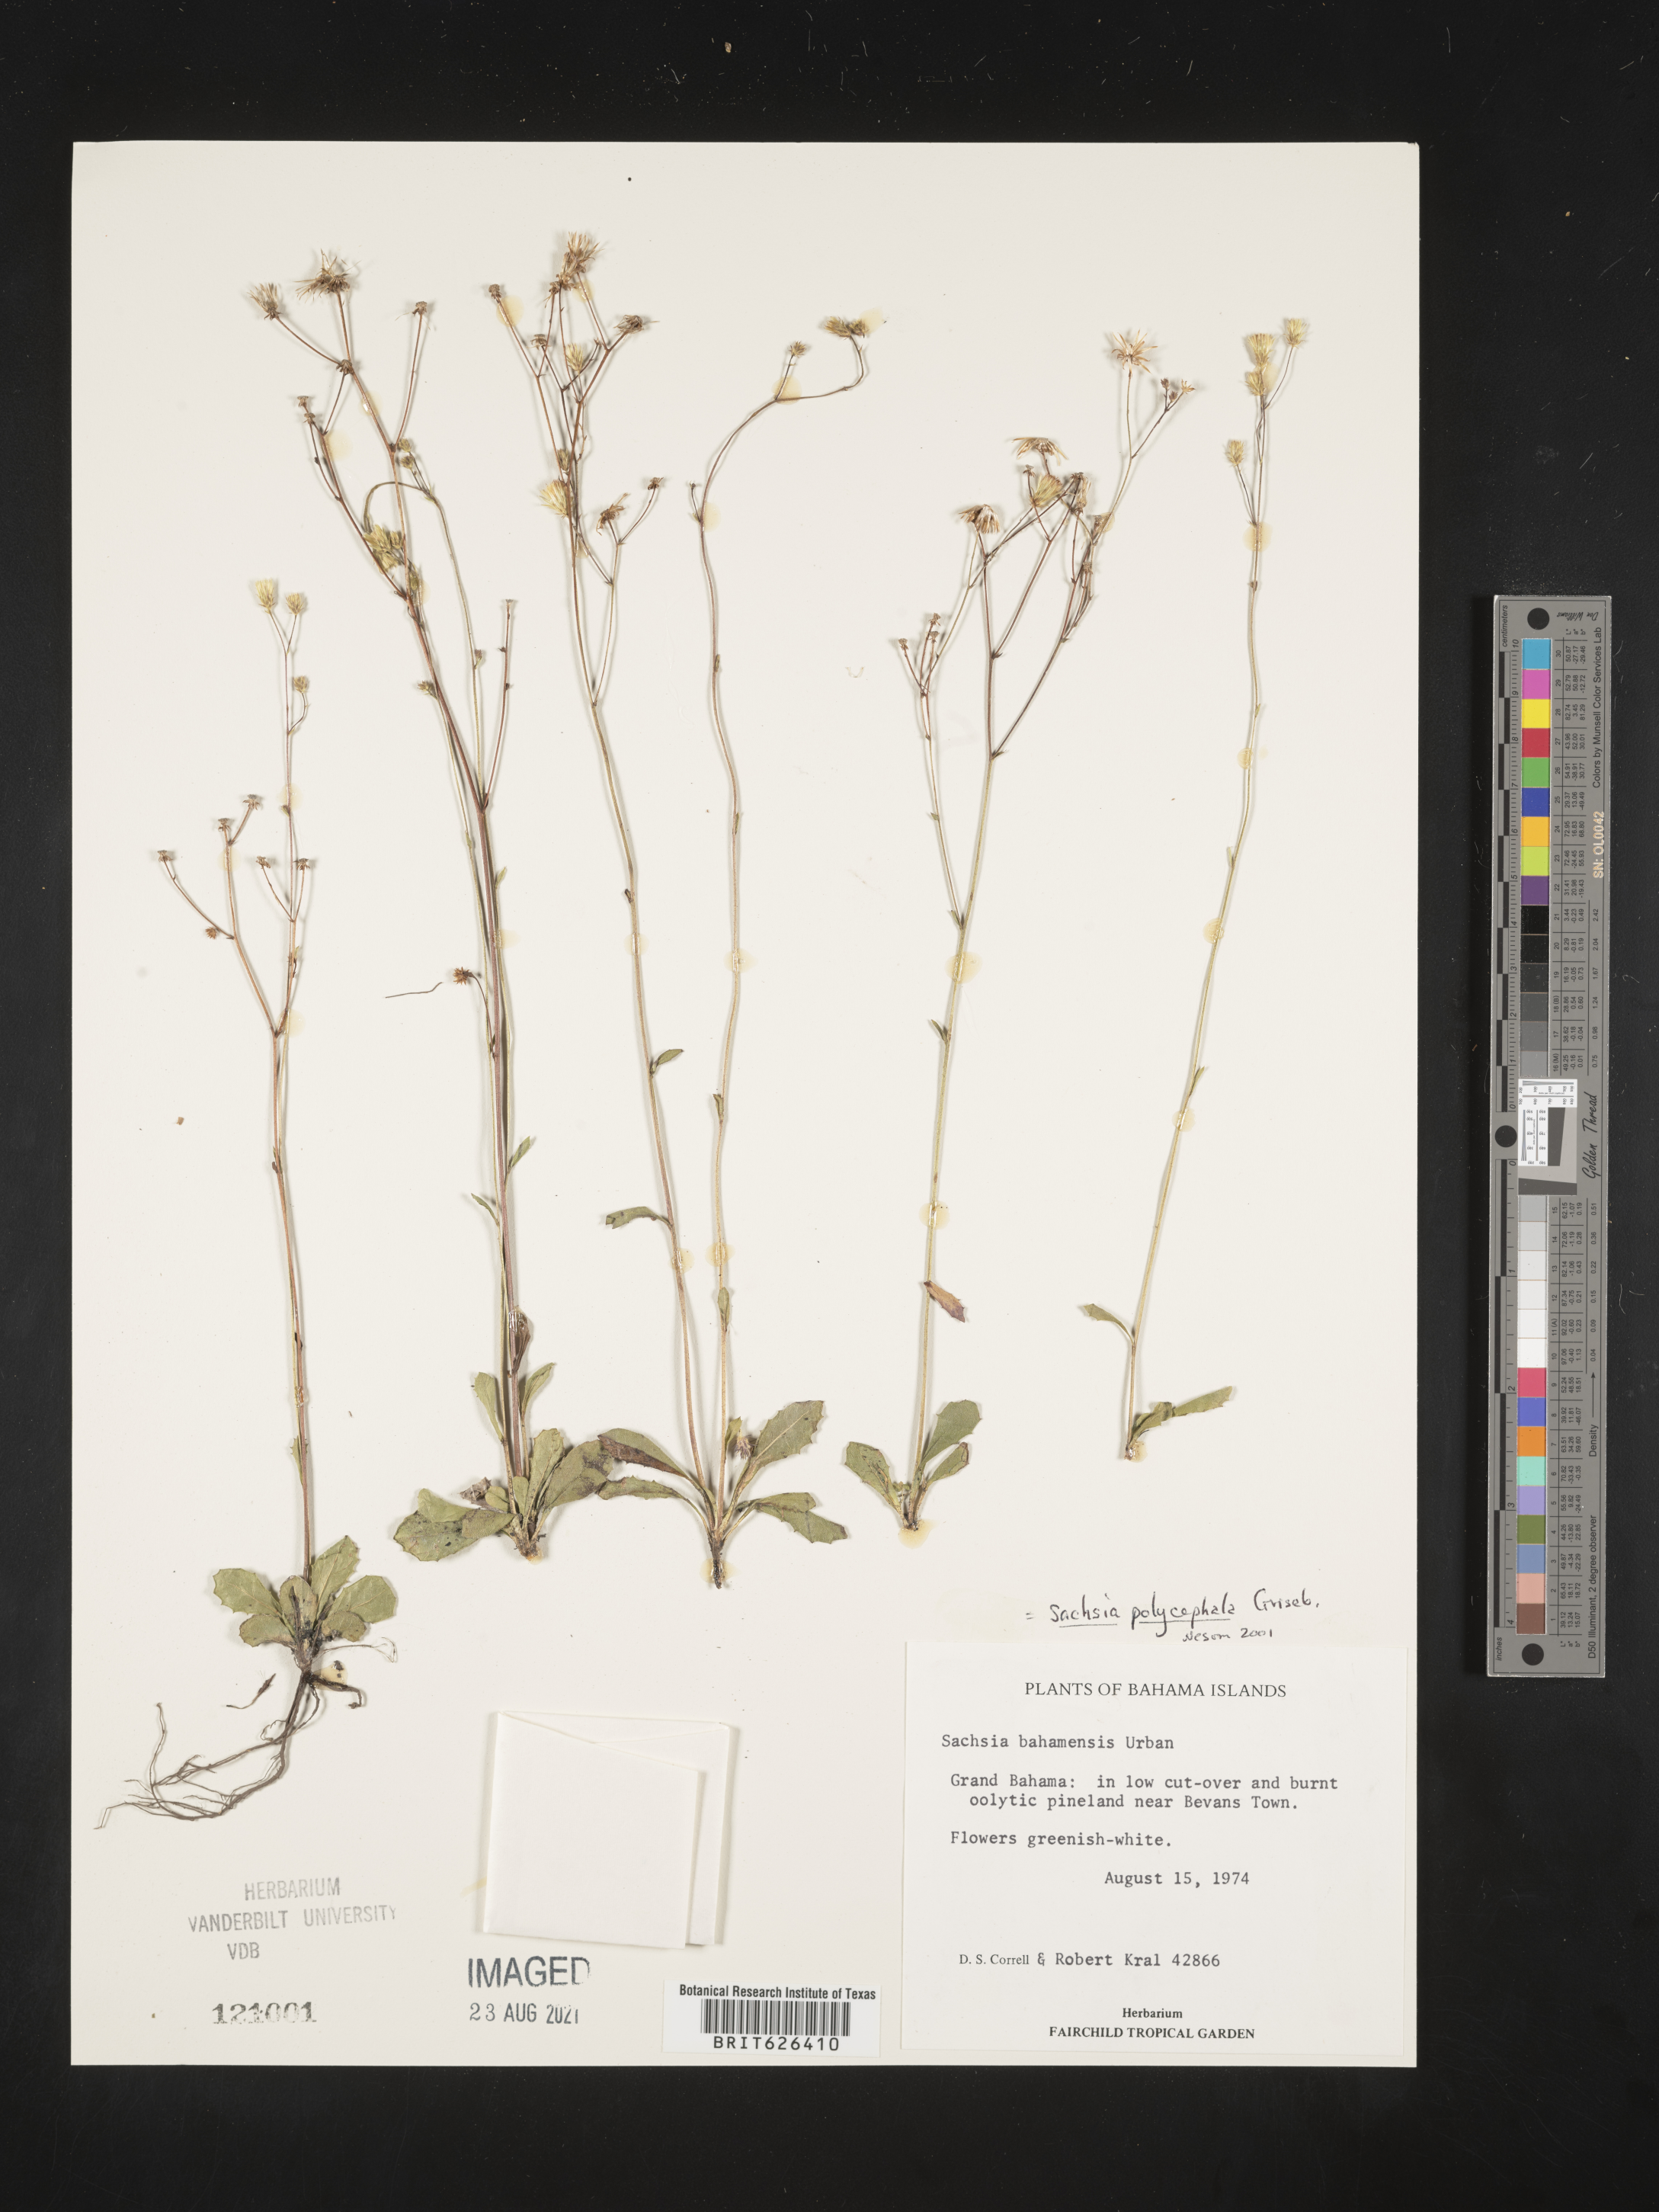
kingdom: Plantae
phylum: Tracheophyta
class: Magnoliopsida
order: Asterales
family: Asteraceae
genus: Sachsia
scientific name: Sachsia polycephala
